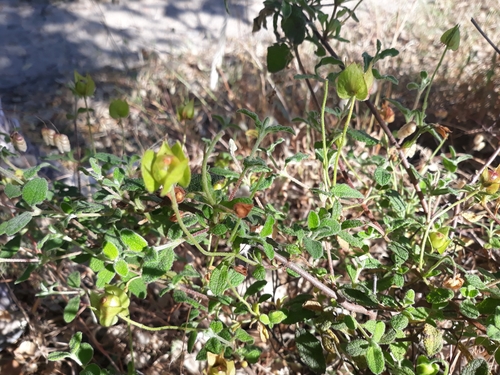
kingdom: Plantae
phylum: Tracheophyta
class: Magnoliopsida
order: Malvales
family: Cistaceae
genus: Cistus
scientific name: Cistus salviifolius
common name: Salvia cistus
